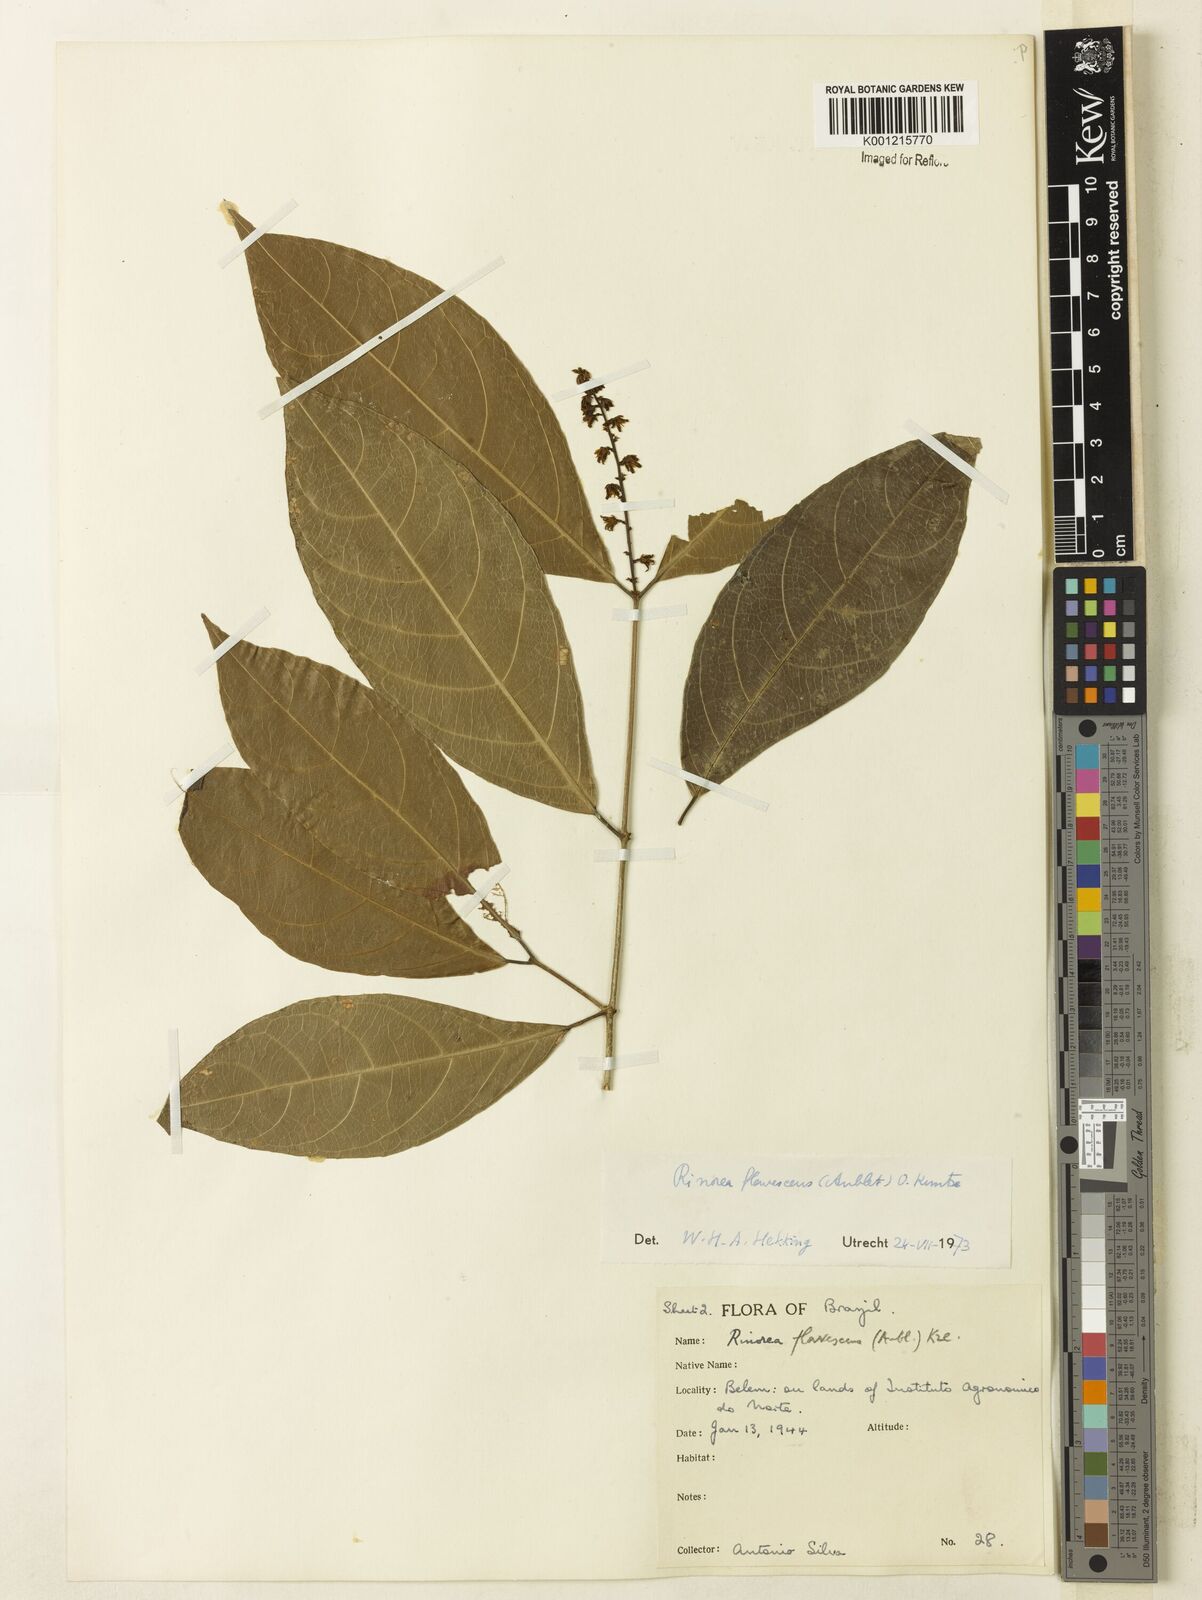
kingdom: Plantae
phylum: Tracheophyta
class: Magnoliopsida
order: Malpighiales
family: Violaceae
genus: Rinorea
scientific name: Rinorea flavescens
